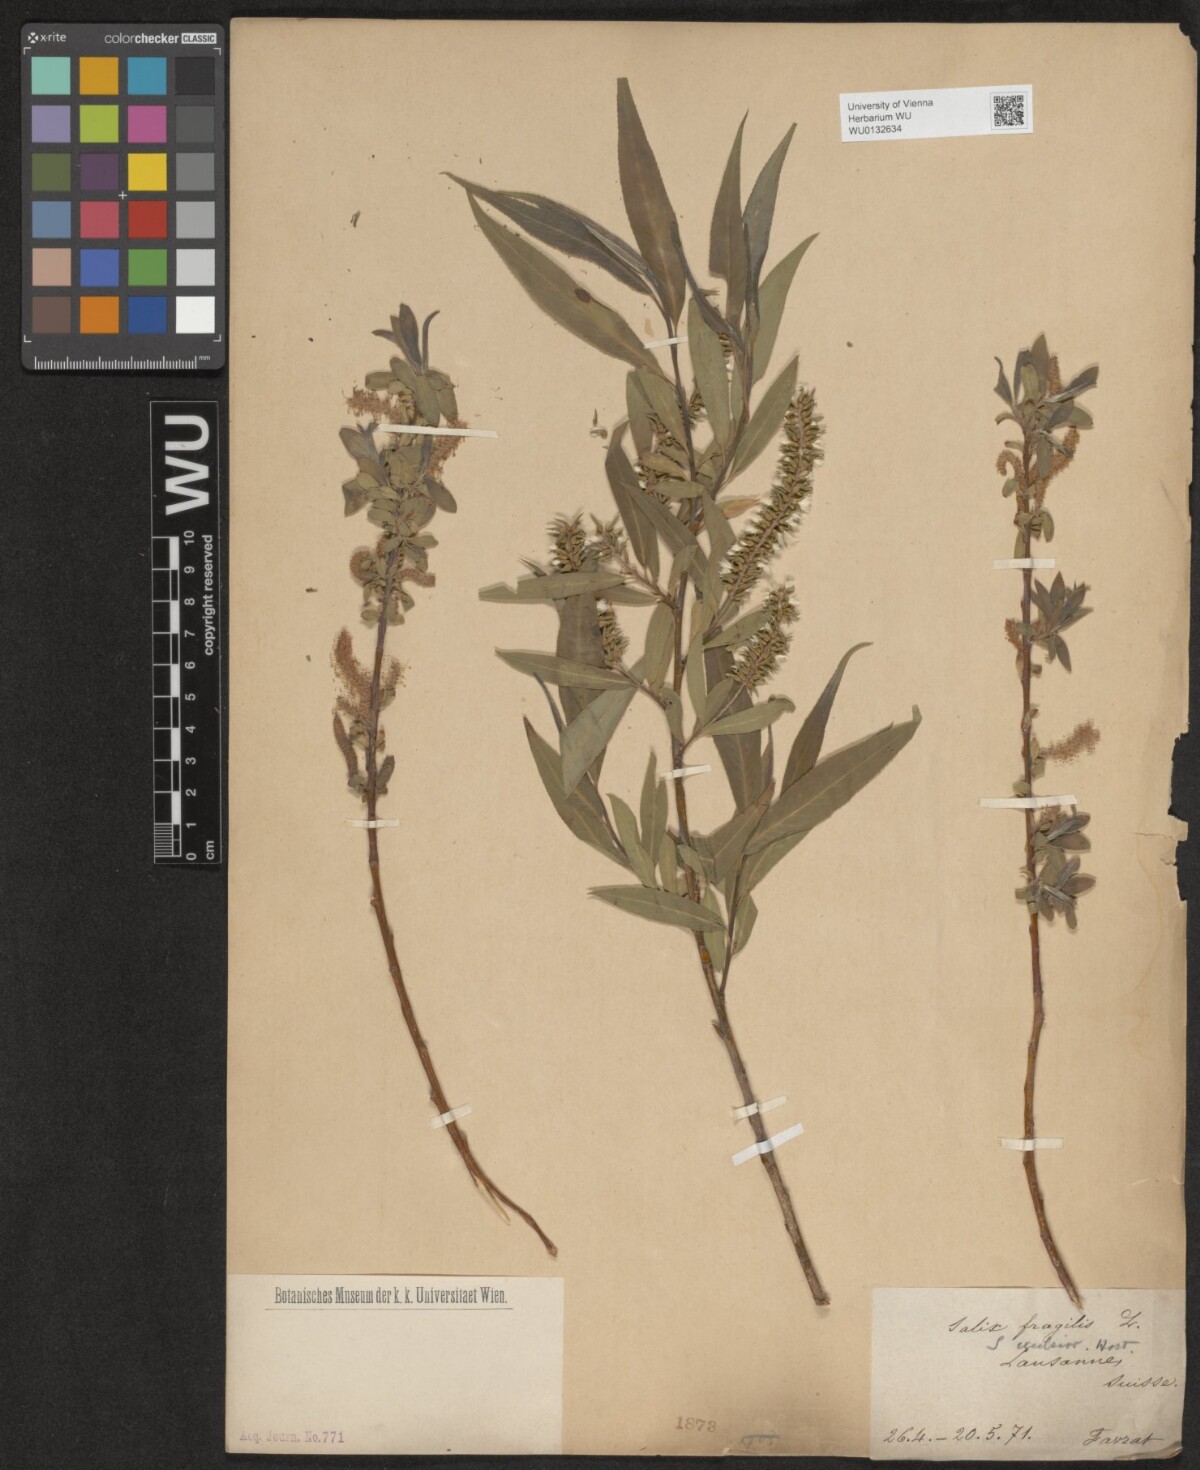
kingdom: Plantae
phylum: Tracheophyta
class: Magnoliopsida
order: Malpighiales
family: Salicaceae
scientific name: Salicaceae
